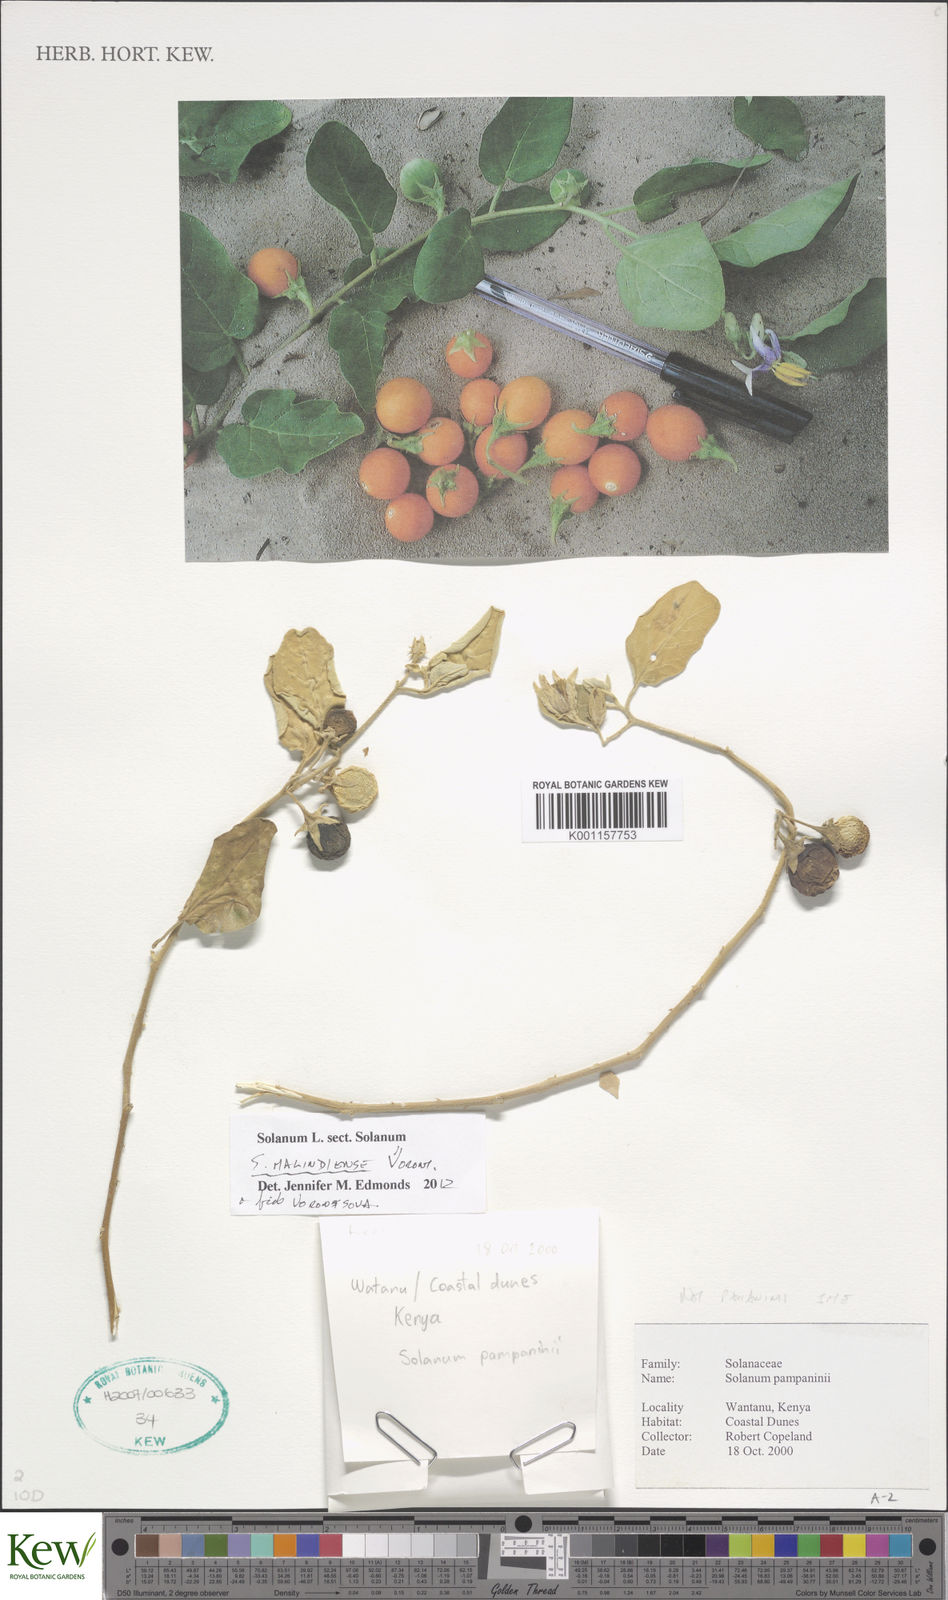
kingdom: Plantae
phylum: Tracheophyta
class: Magnoliopsida
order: Solanales
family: Solanaceae
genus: Solanum
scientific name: Solanum malindiense
